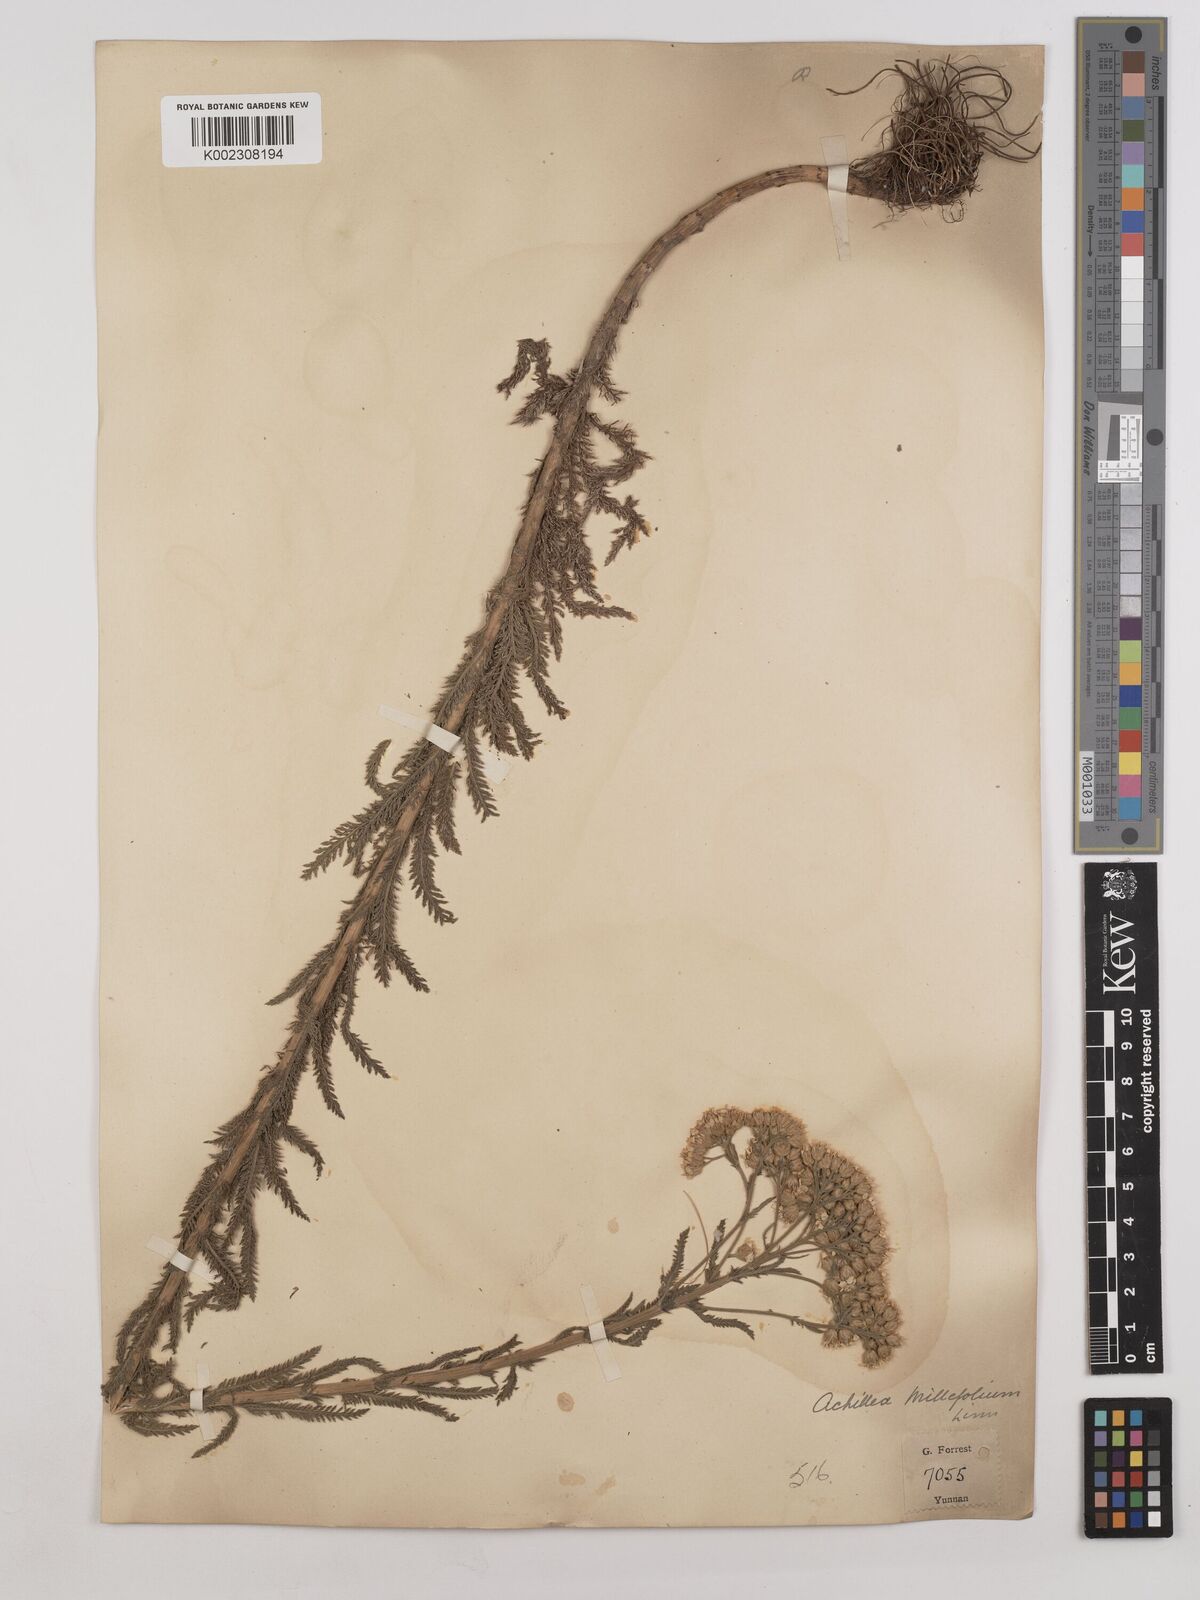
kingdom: Plantae
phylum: Tracheophyta
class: Magnoliopsida
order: Asterales
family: Asteraceae
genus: Achillea
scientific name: Achillea alpina
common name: Siberian yarrow
